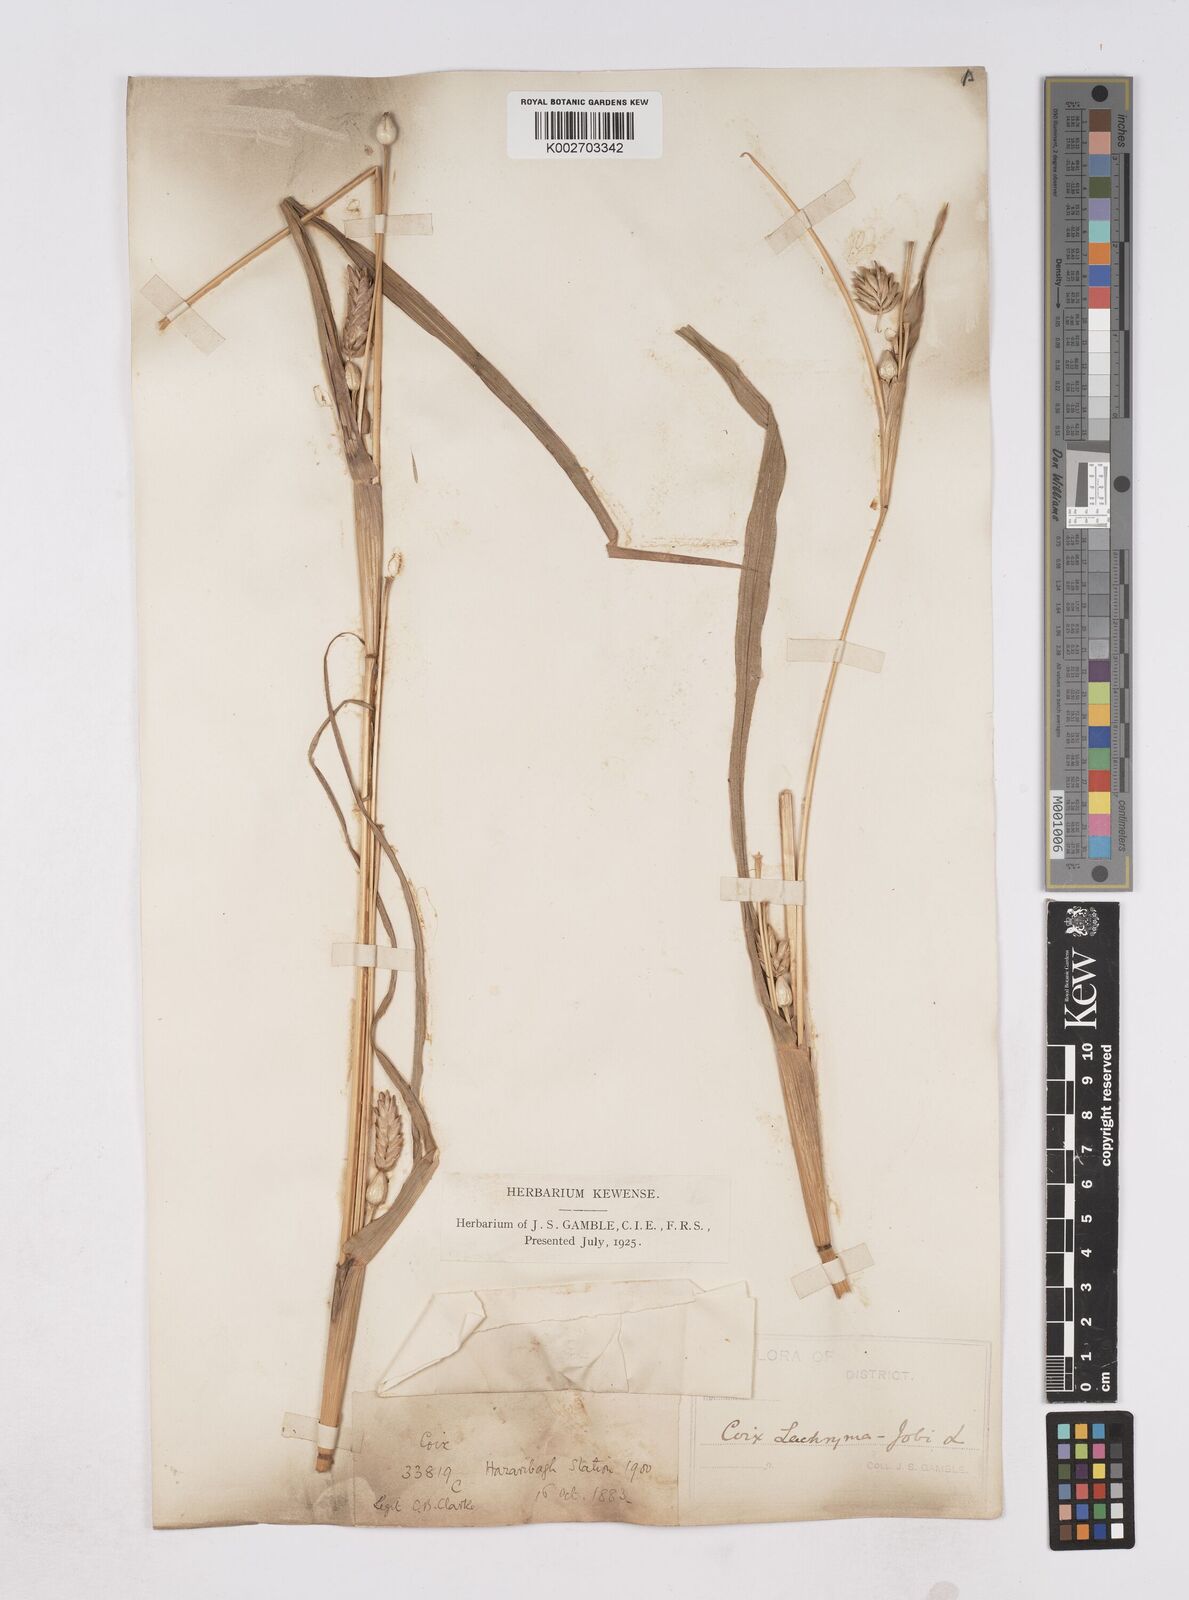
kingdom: Plantae
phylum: Tracheophyta
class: Liliopsida
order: Poales
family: Poaceae
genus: Coix
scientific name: Coix lacryma-jobi
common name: Job's tears
